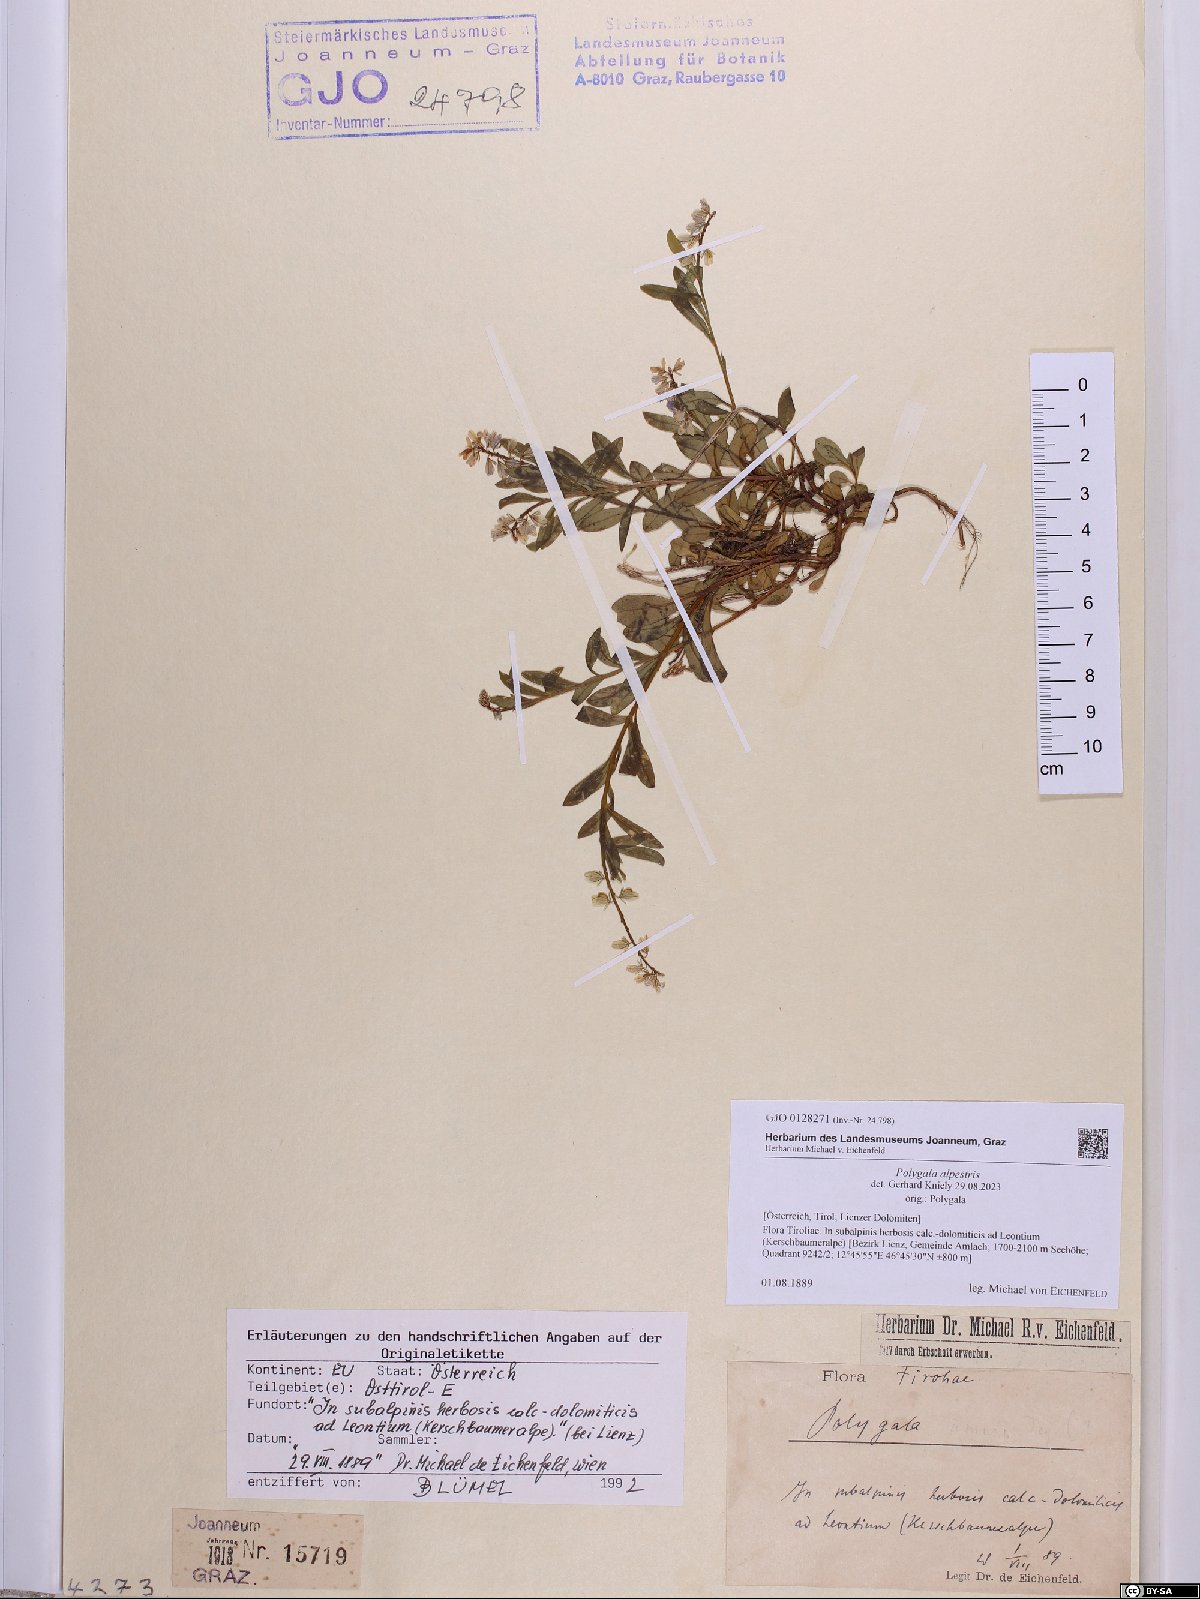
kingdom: Plantae
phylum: Tracheophyta
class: Magnoliopsida
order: Fabales
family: Polygalaceae
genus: Polygala
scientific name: Polygala alpestris
